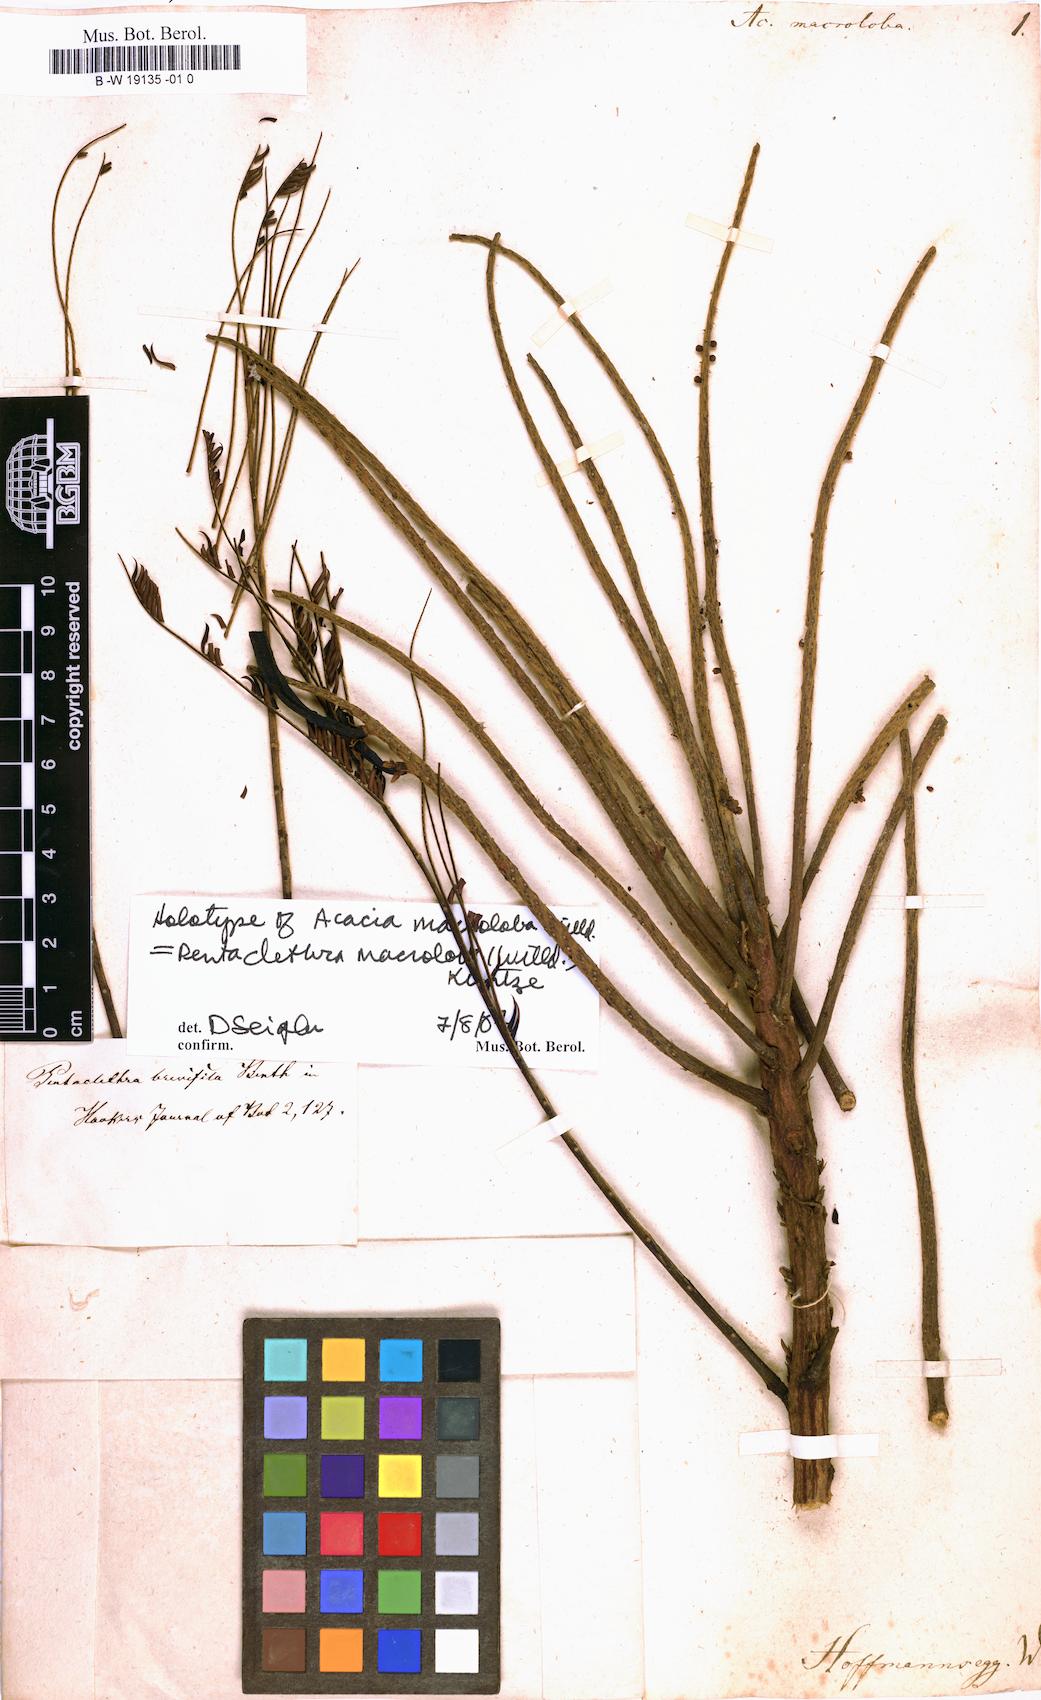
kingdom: Plantae
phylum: Tracheophyta
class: Magnoliopsida
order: Fabales
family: Fabaceae
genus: Pentaclethra
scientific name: Pentaclethra macroloba
